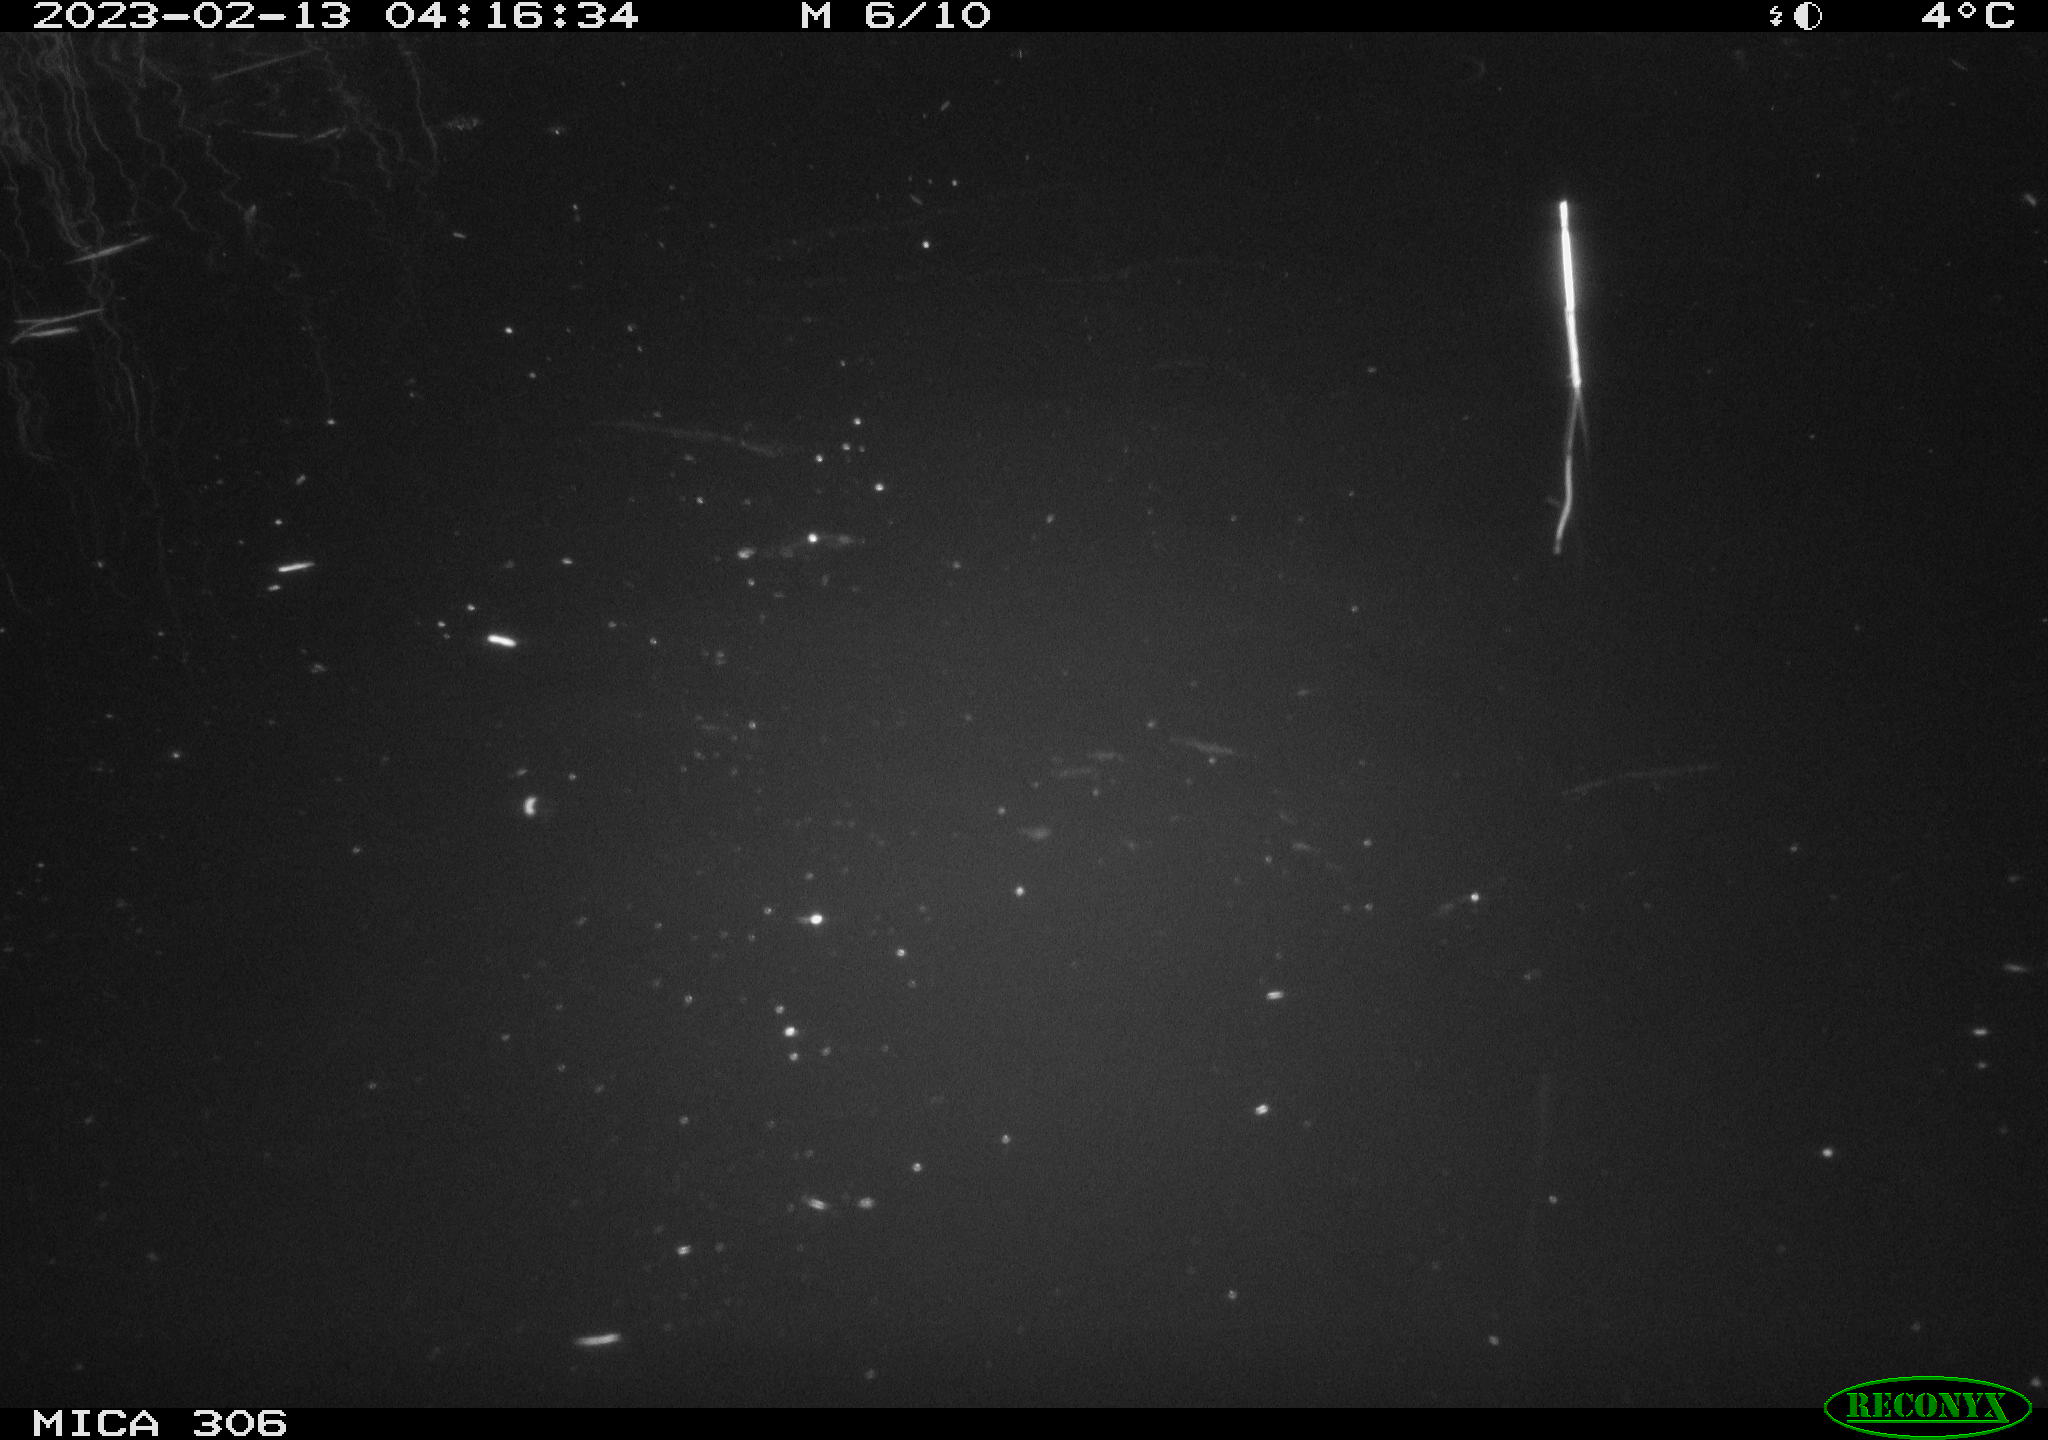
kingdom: Animalia
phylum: Chordata
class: Mammalia
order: Rodentia
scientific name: Rodentia
